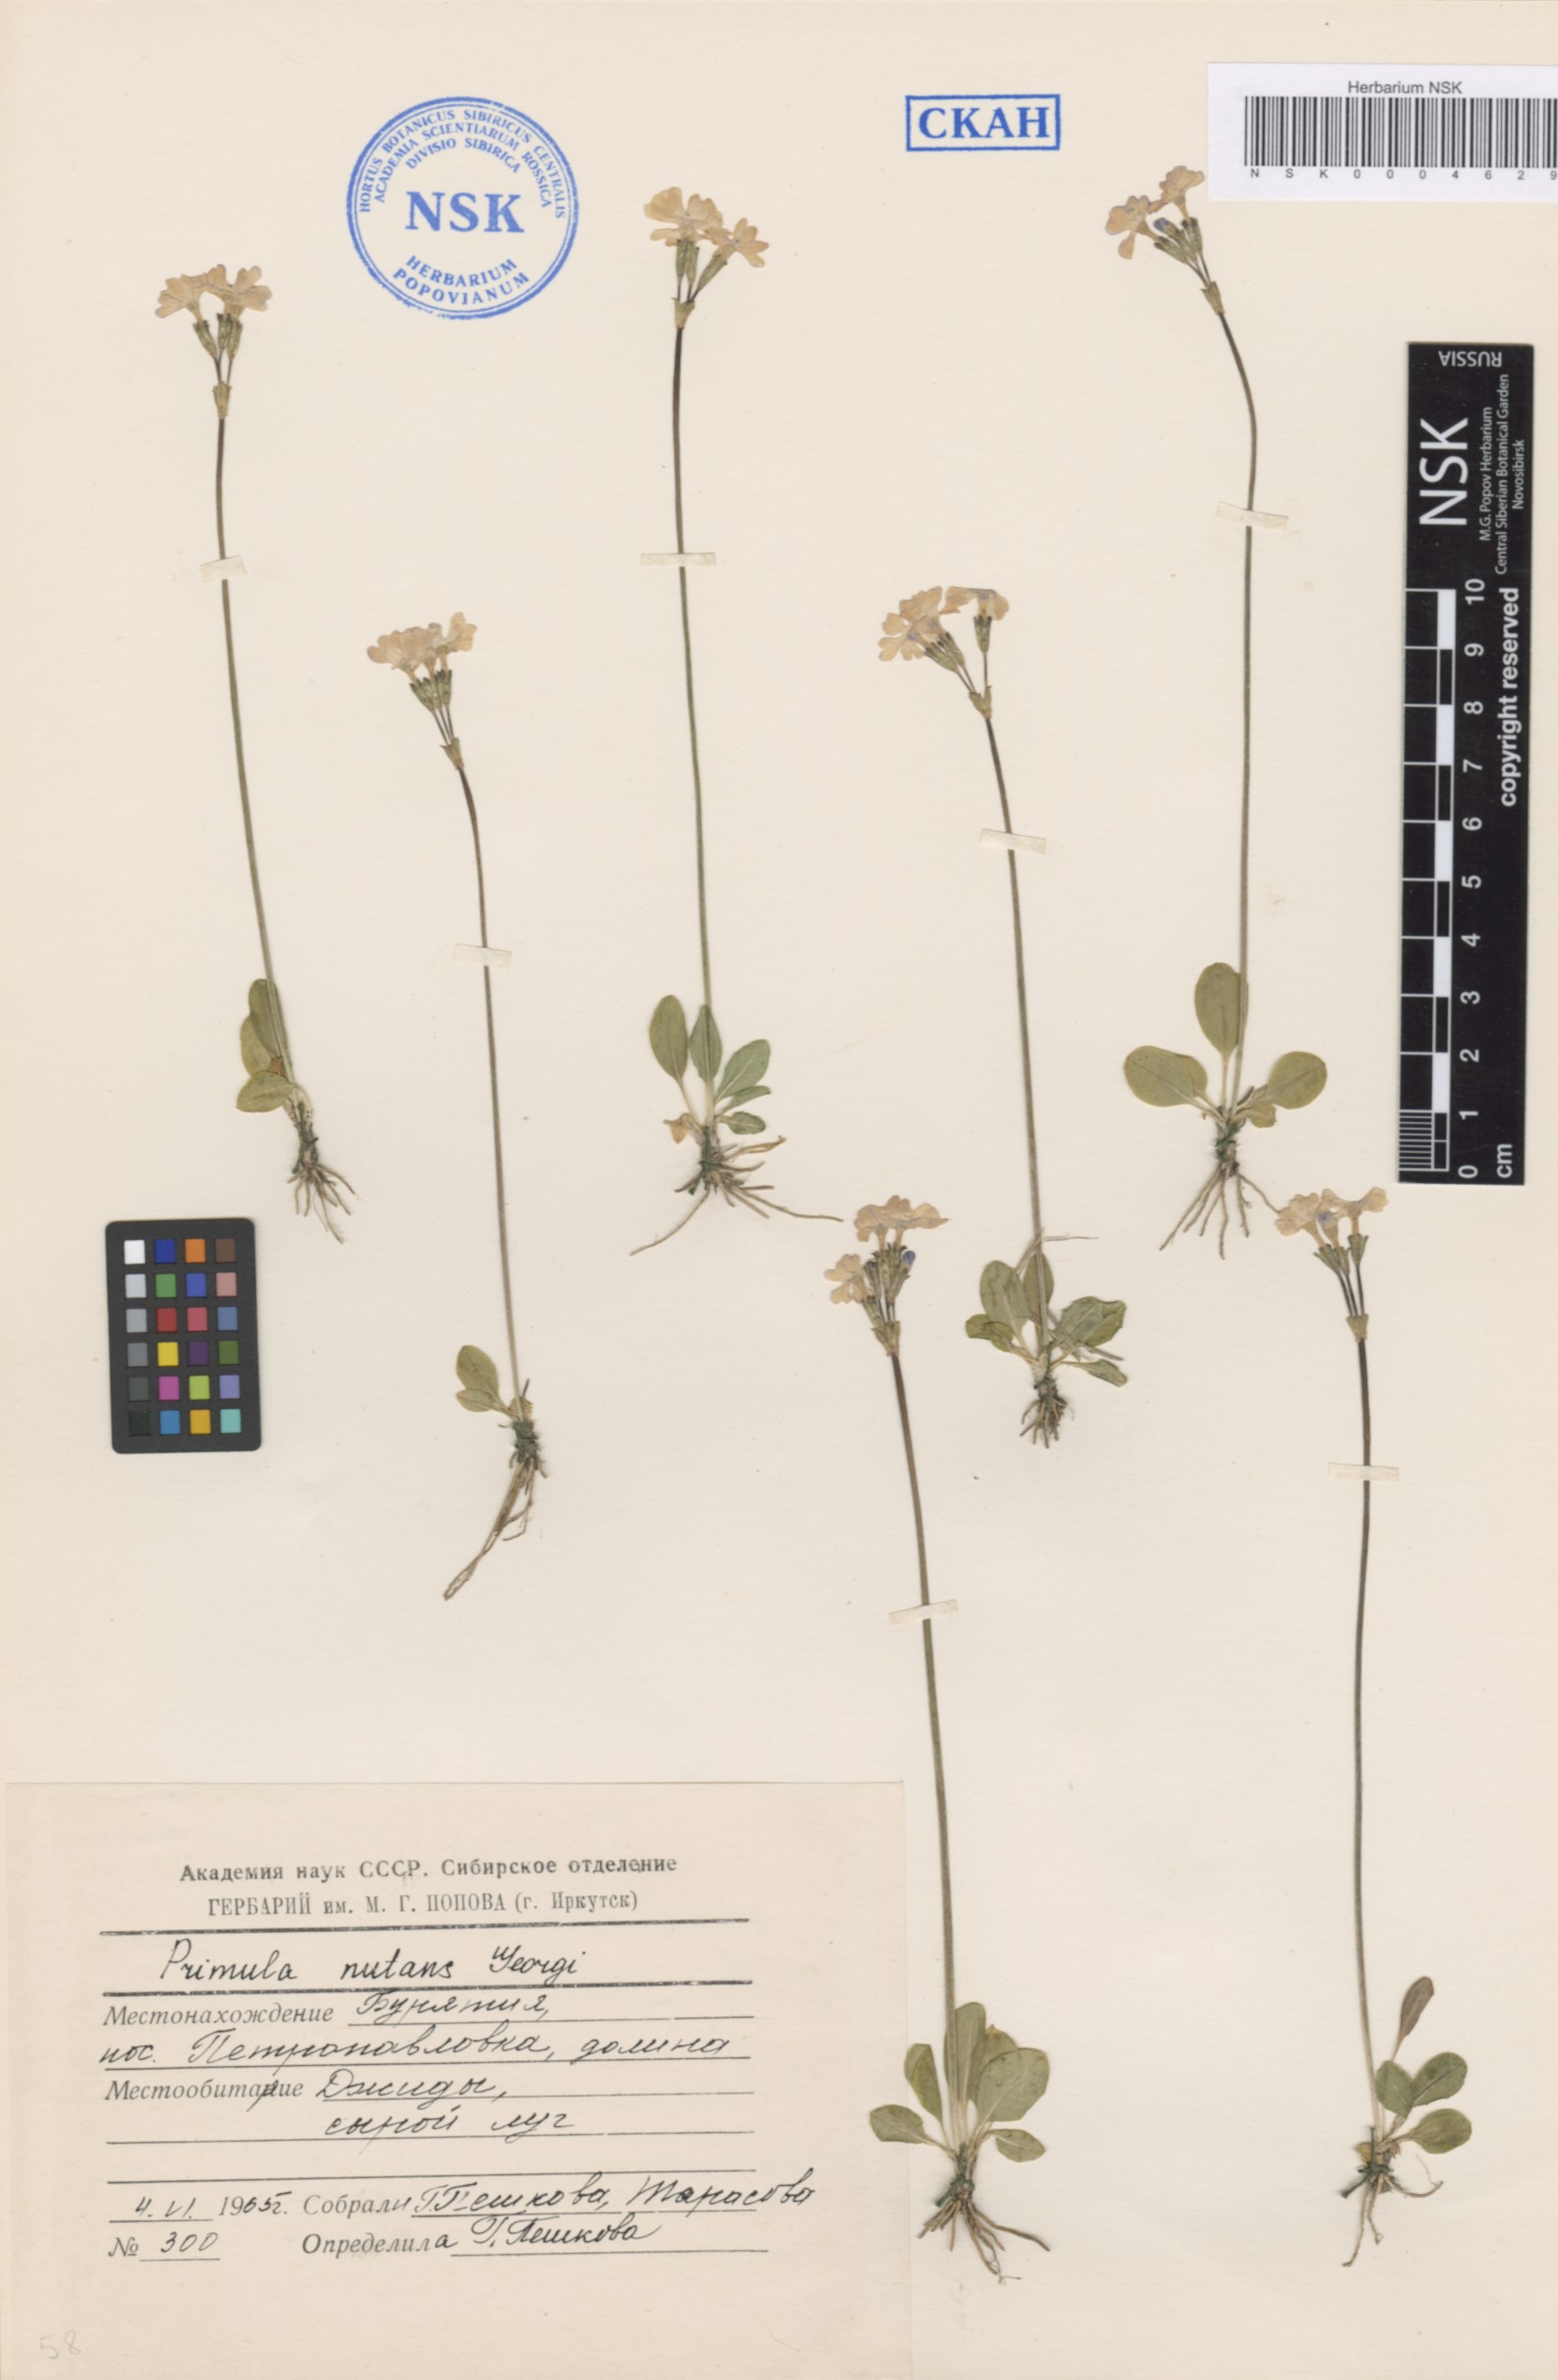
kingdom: Plantae
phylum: Tracheophyta
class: Magnoliopsida
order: Ericales
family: Primulaceae
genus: Primula
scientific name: Primula nutans
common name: Siberian primrose
